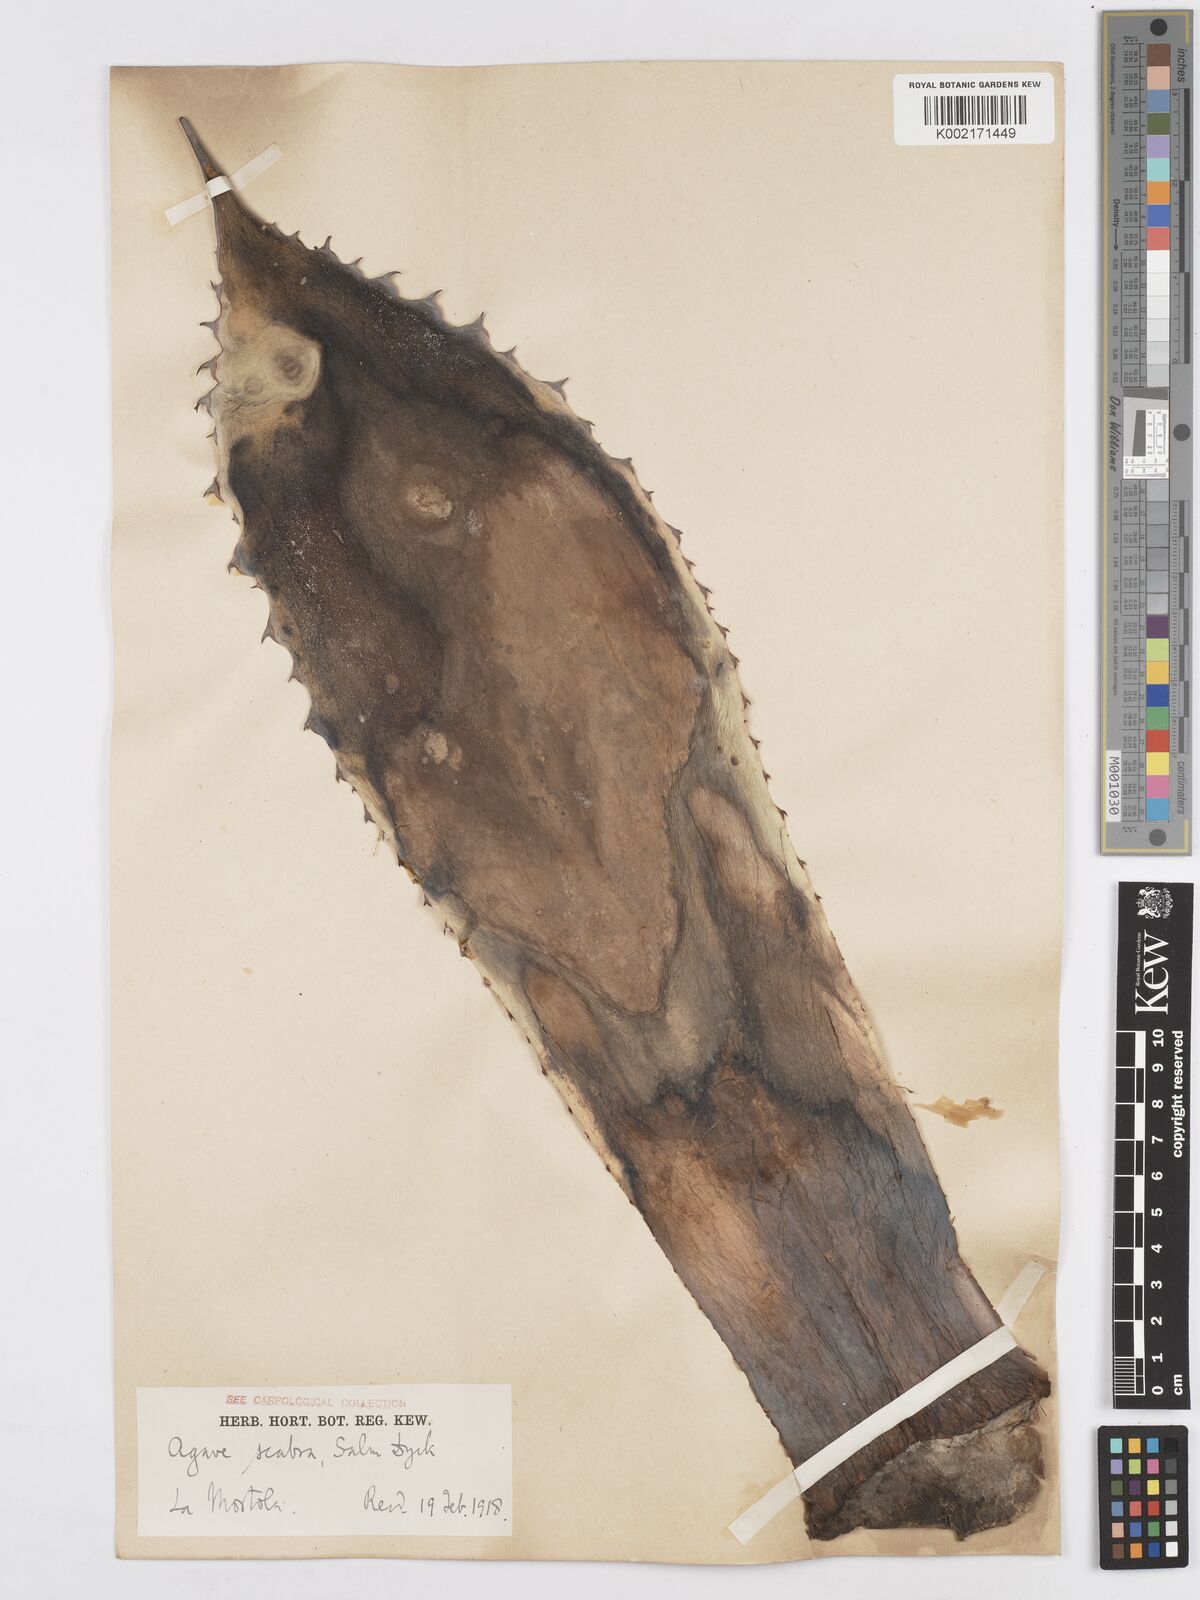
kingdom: Plantae
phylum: Tracheophyta
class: Liliopsida
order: Asparagales
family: Asparagaceae
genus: Agave
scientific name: Agave asperrima
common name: Rough agave
